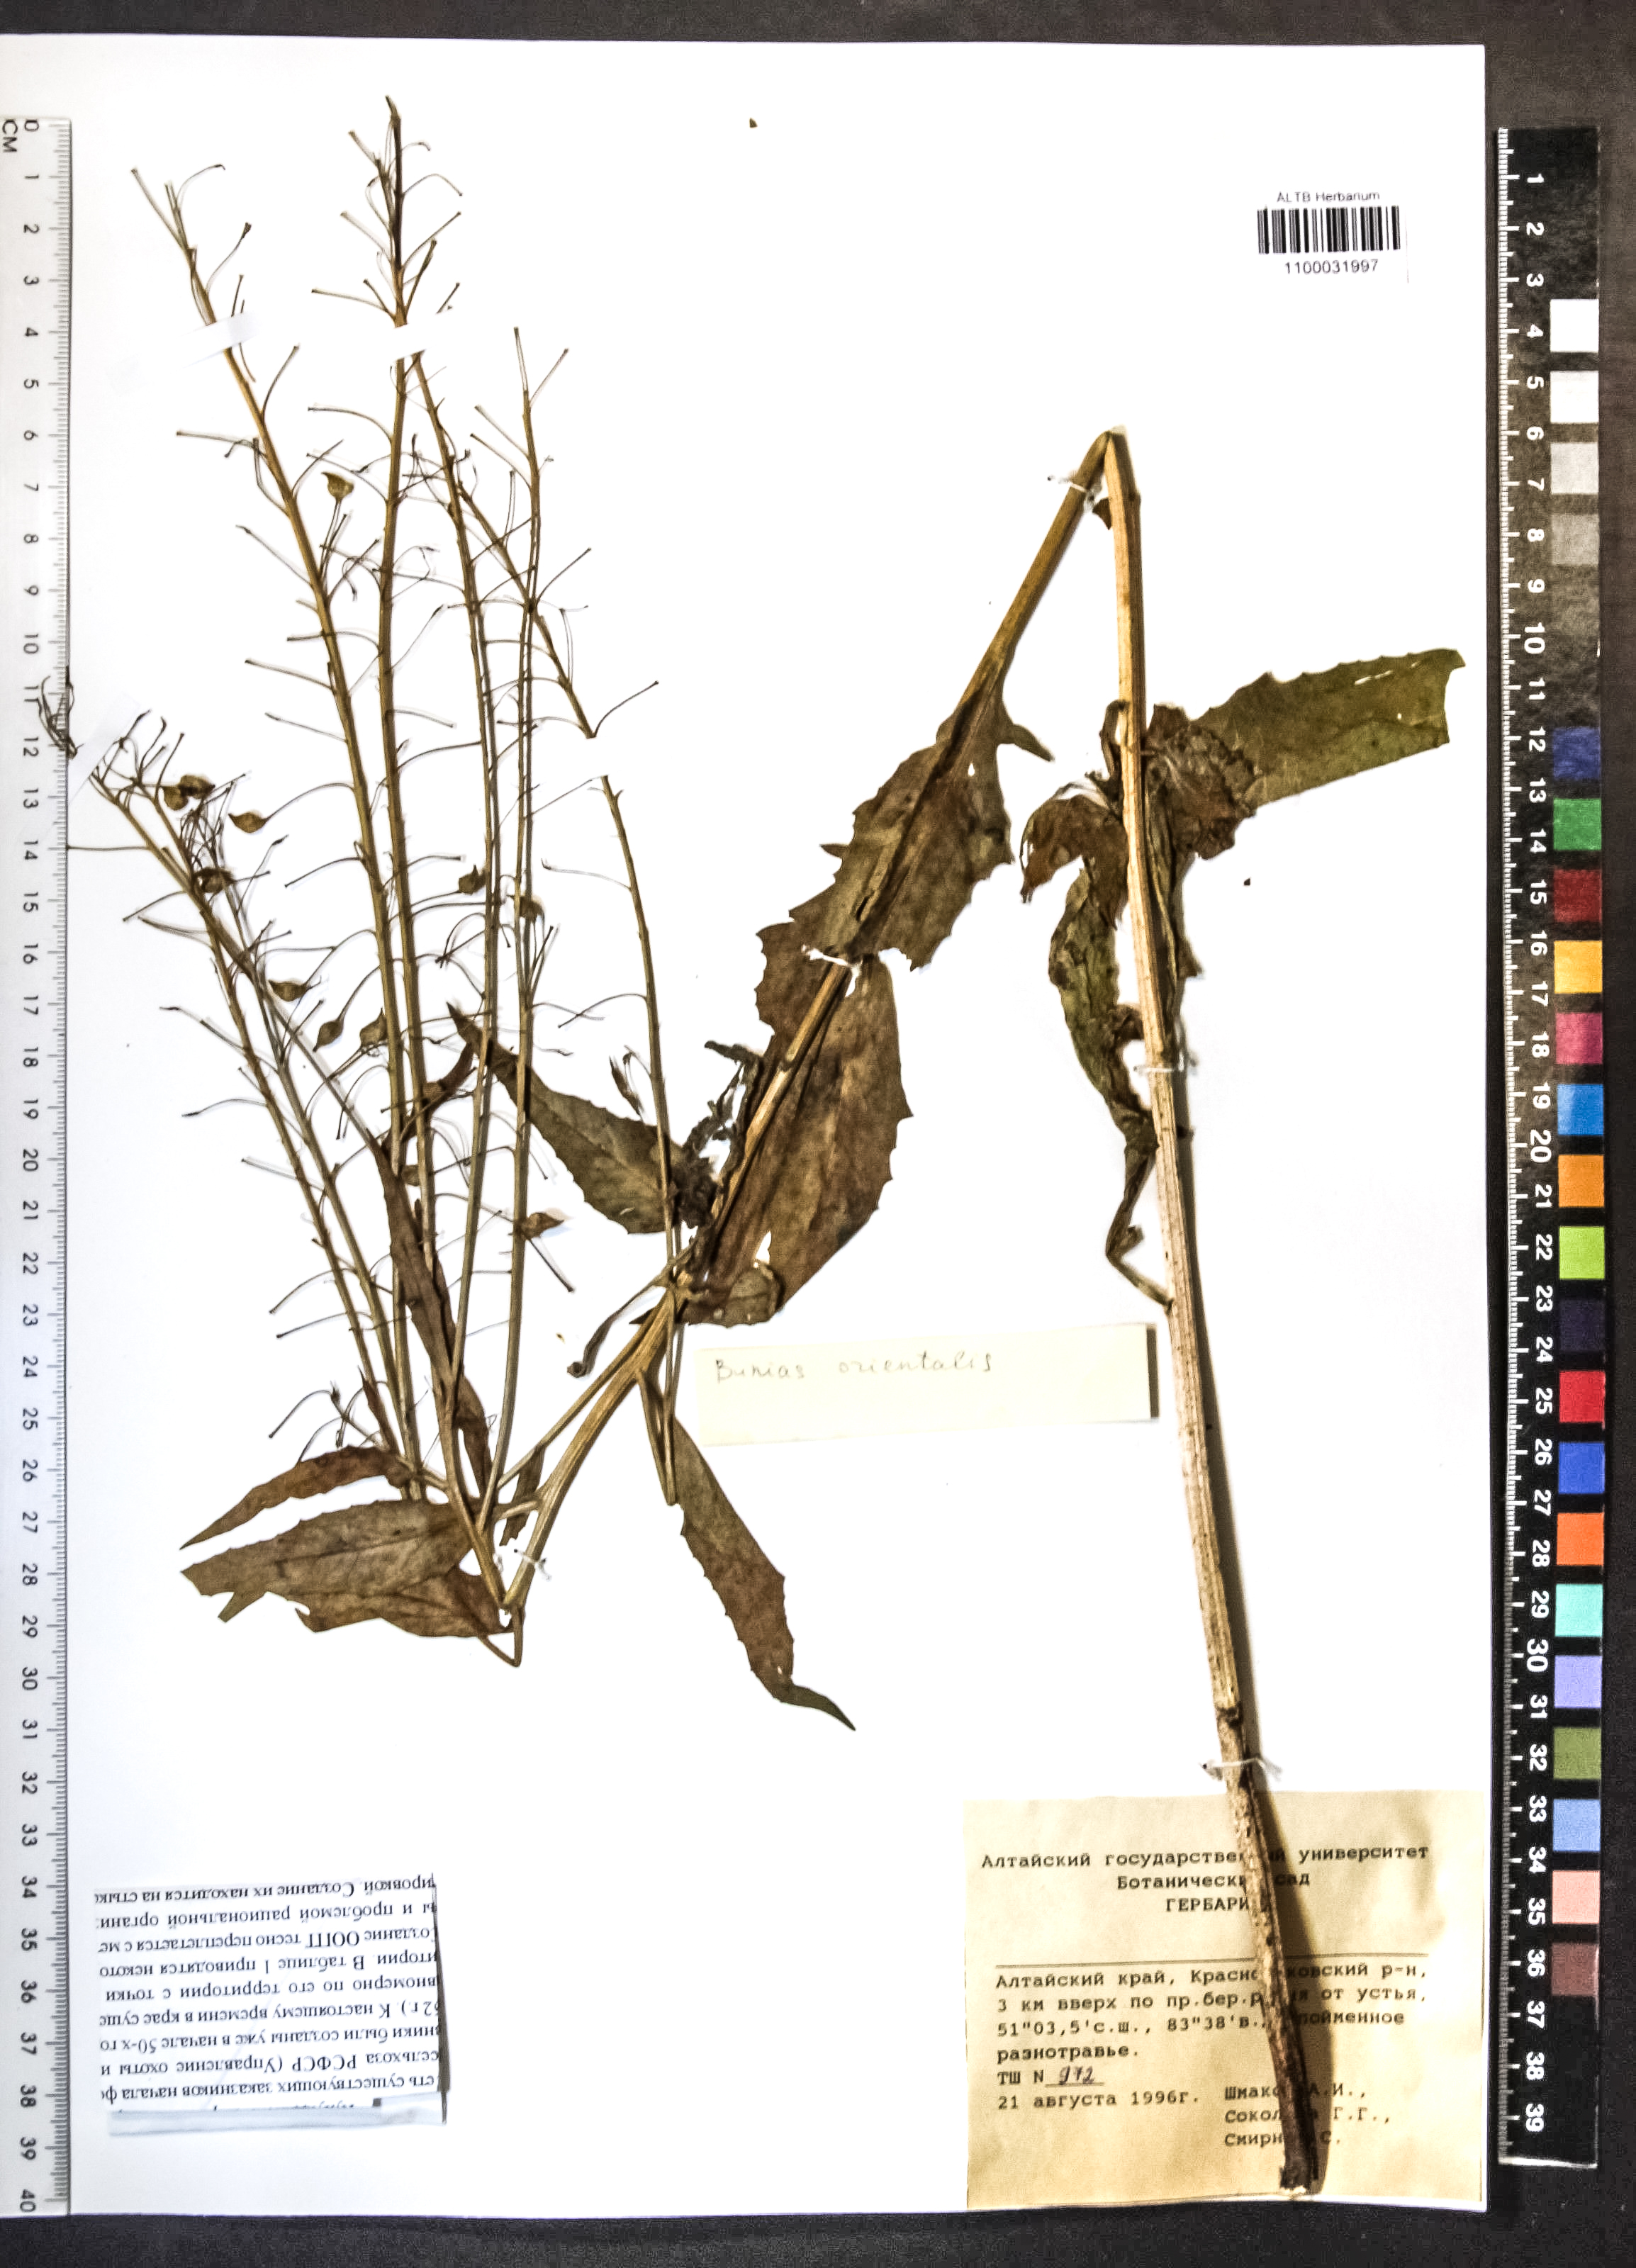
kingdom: Plantae
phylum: Tracheophyta
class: Magnoliopsida
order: Brassicales
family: Brassicaceae
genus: Bunias
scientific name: Bunias orientalis
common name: Warty-cabbage
